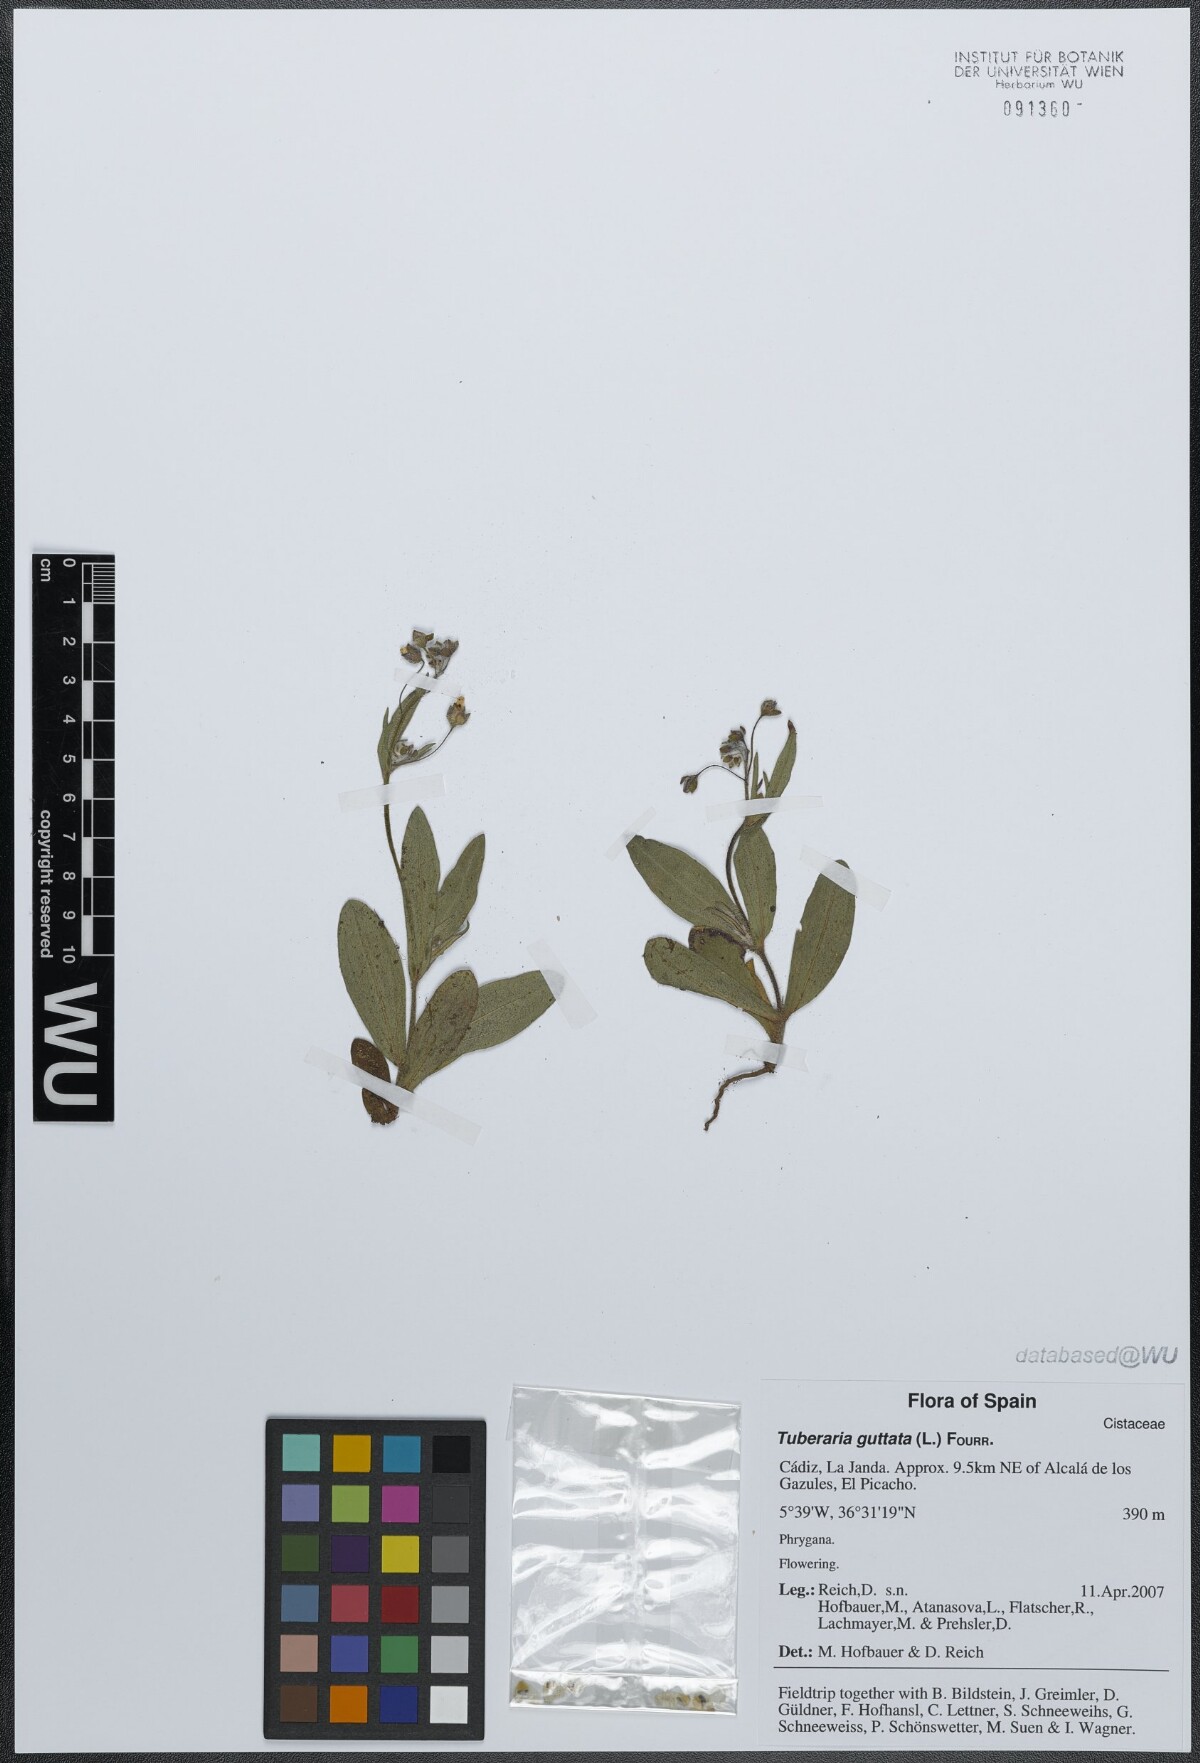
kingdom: Plantae
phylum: Tracheophyta
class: Magnoliopsida
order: Malvales
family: Cistaceae
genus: Tuberaria
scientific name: Tuberaria guttata
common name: Spotted rock-rose
